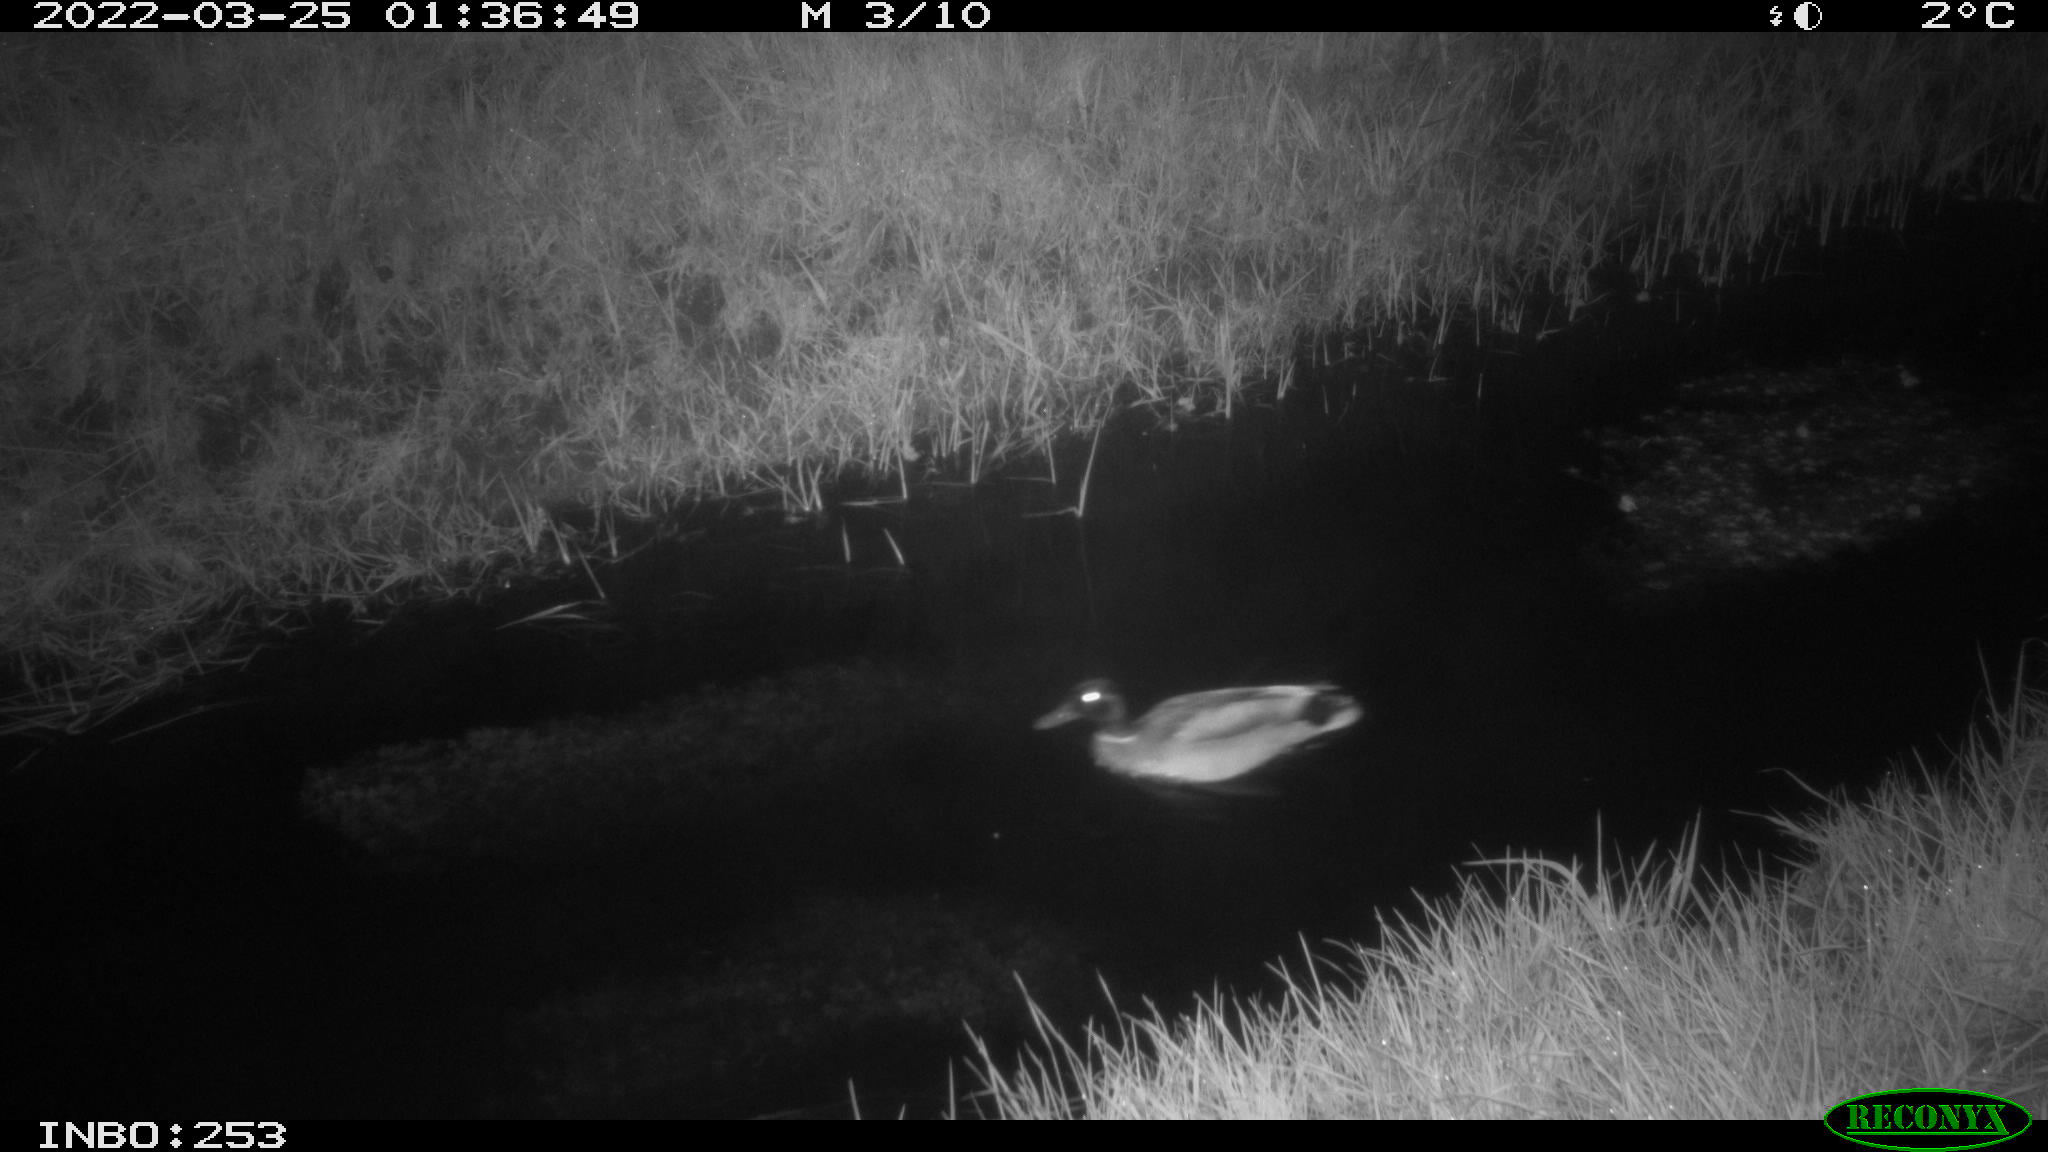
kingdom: Animalia
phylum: Chordata
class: Aves
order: Anseriformes
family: Anatidae
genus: Anas
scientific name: Anas platyrhynchos
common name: Mallard
